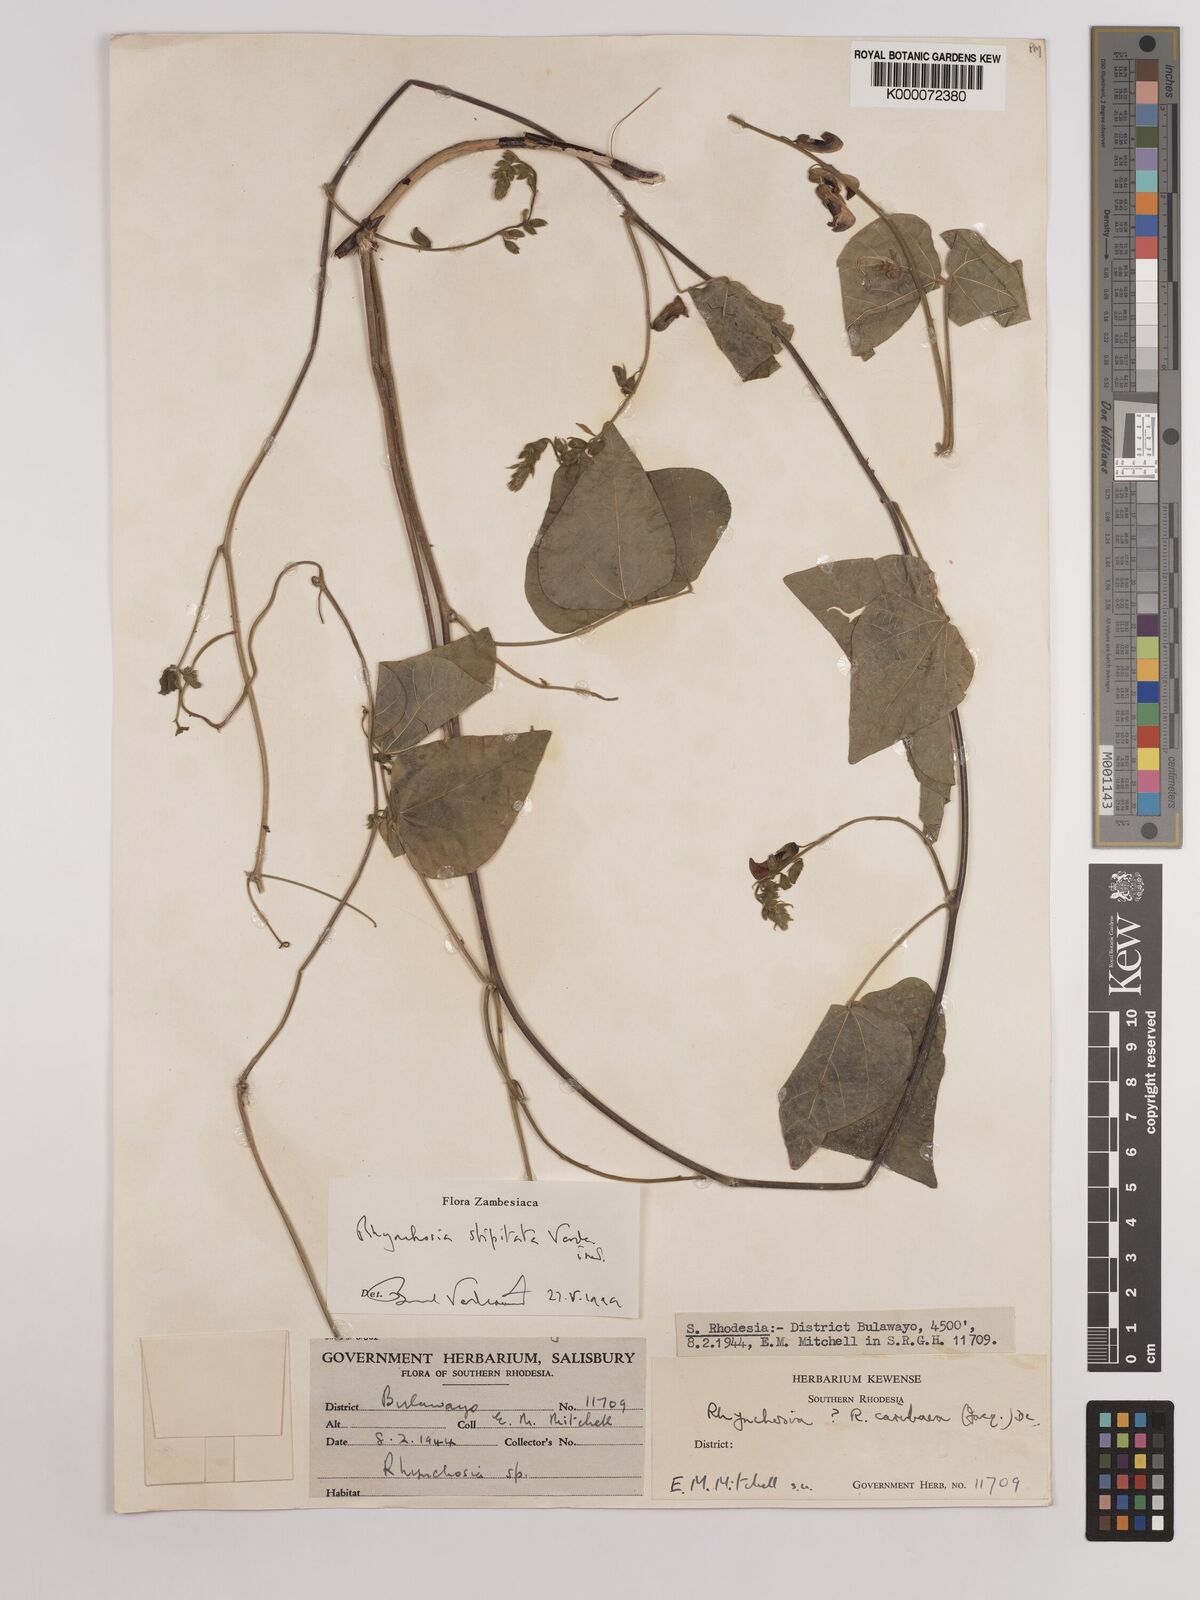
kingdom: Plantae
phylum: Tracheophyta
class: Magnoliopsida
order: Fabales
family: Fabaceae
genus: Rhynchosia
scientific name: Rhynchosia stipitata
